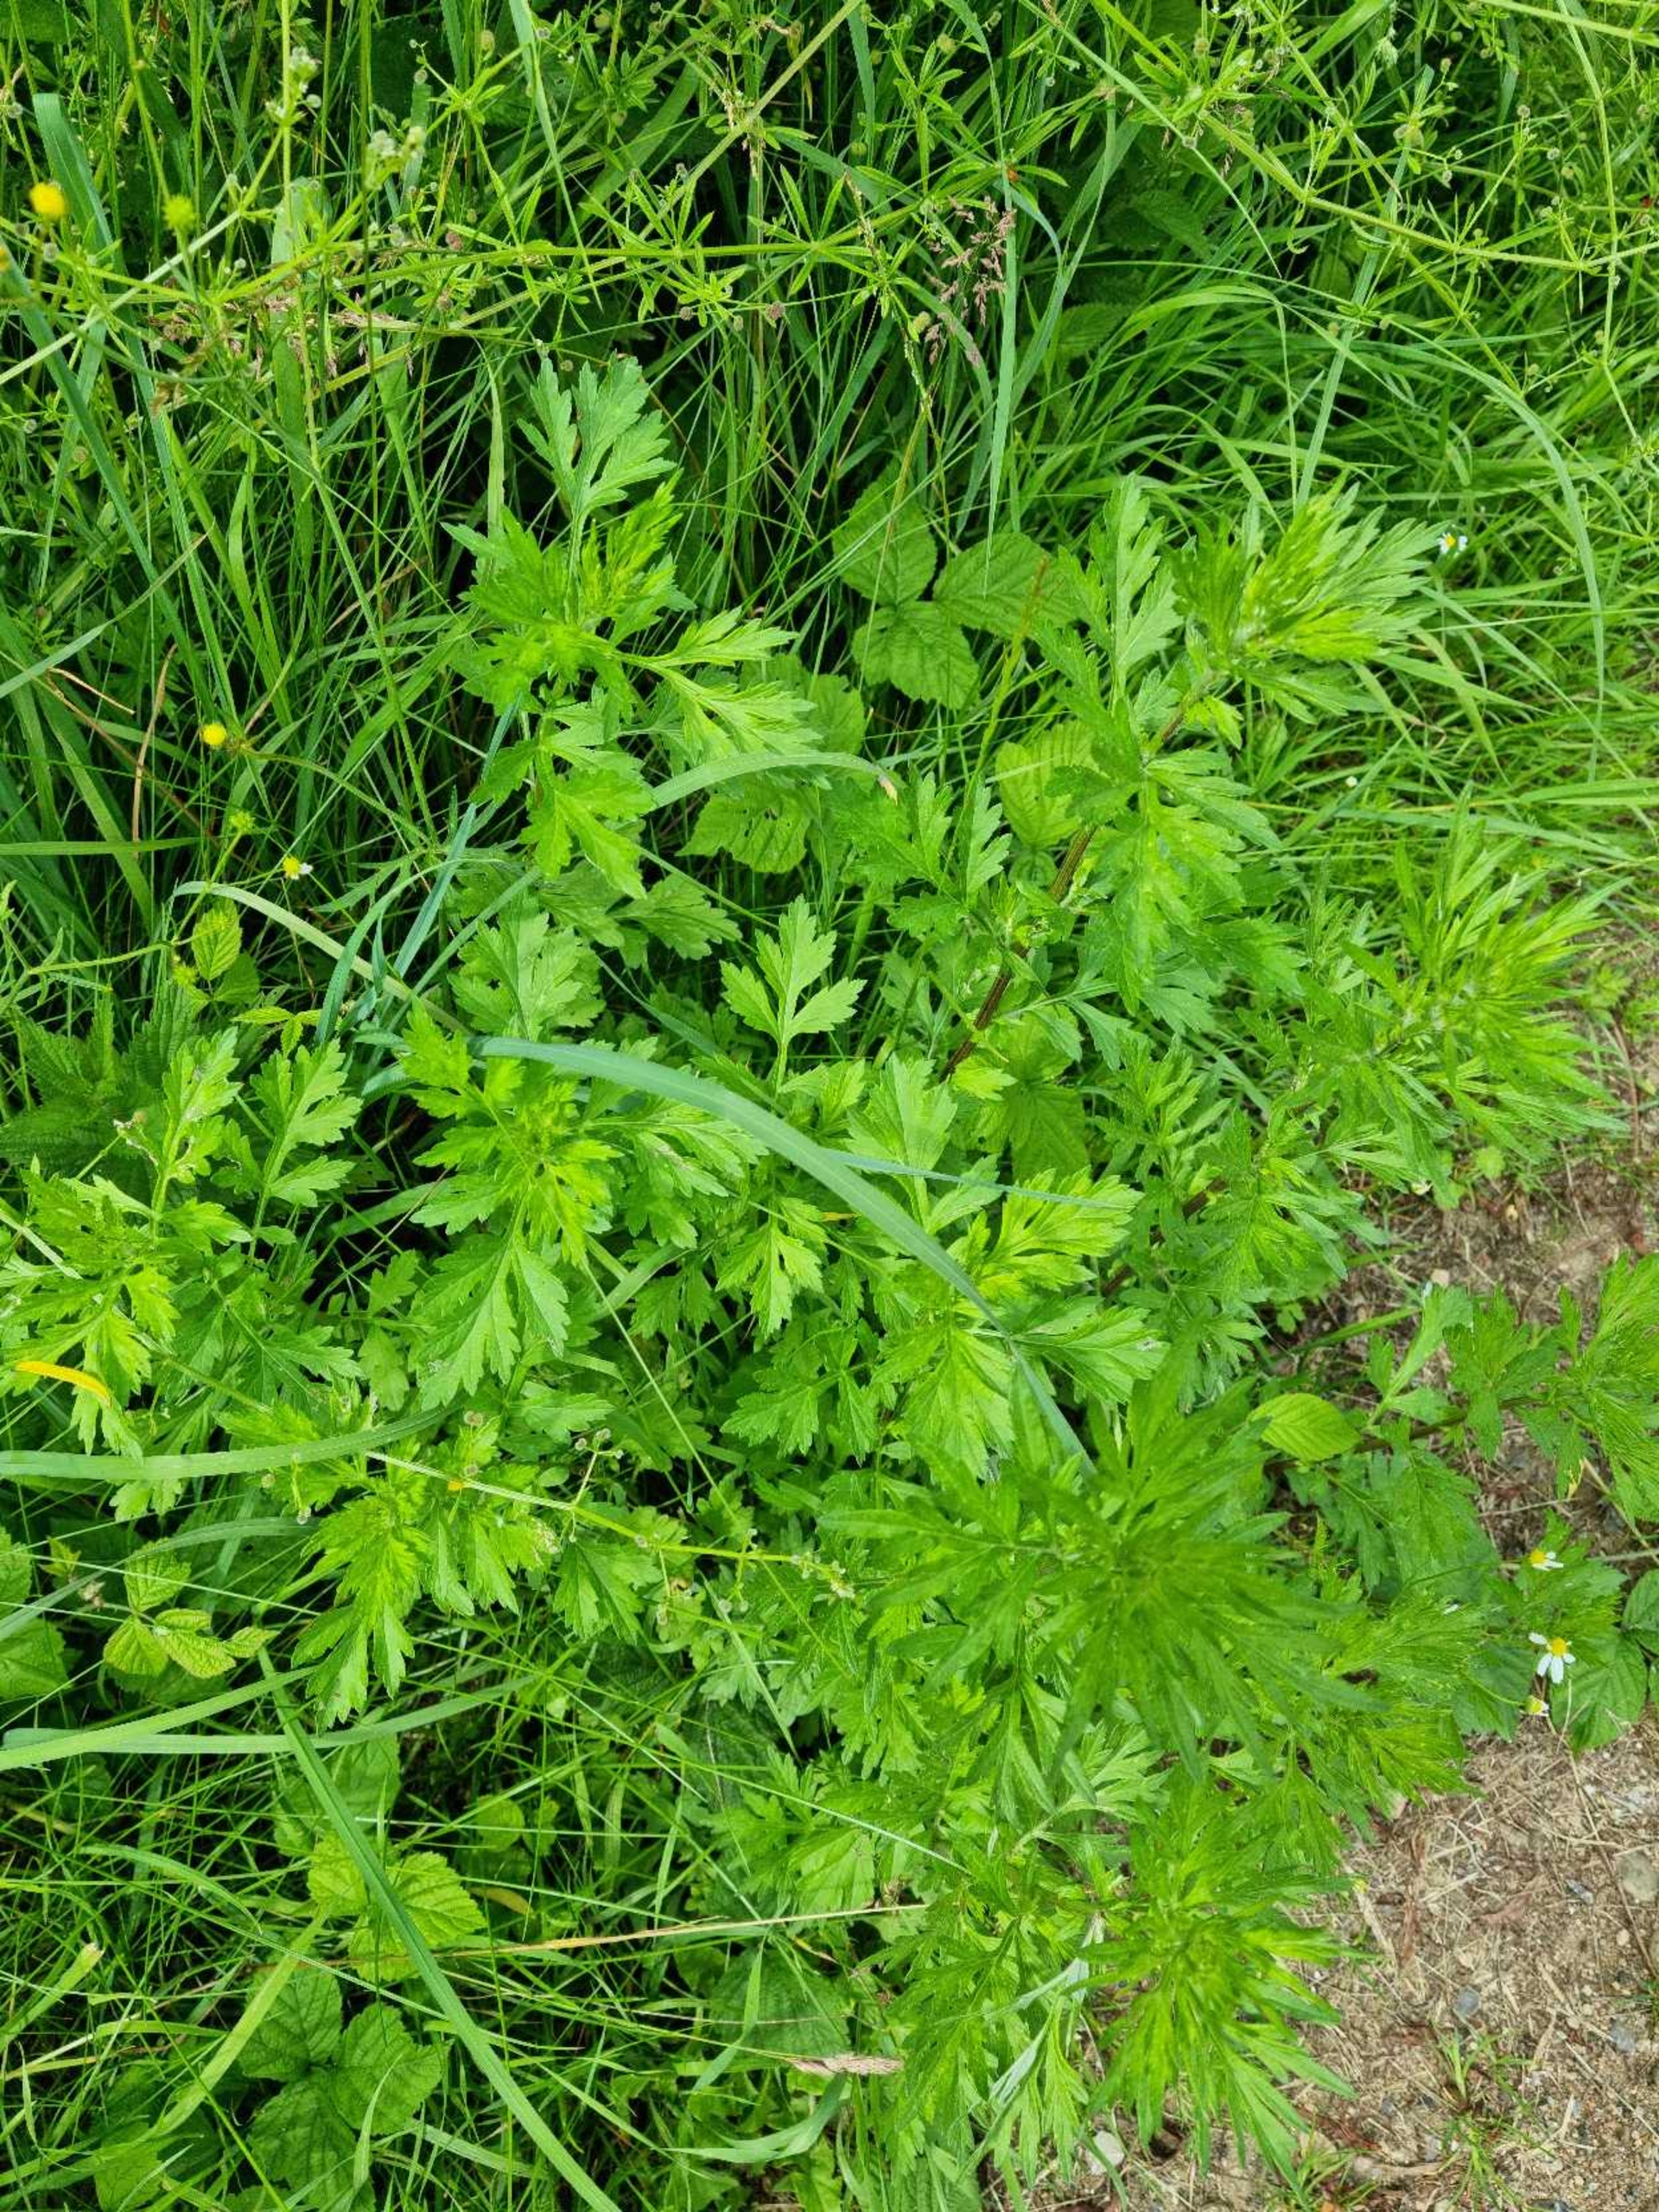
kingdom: Plantae
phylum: Tracheophyta
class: Magnoliopsida
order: Asterales
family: Asteraceae
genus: Artemisia
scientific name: Artemisia vulgaris
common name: Grå-bynke (varietet)
